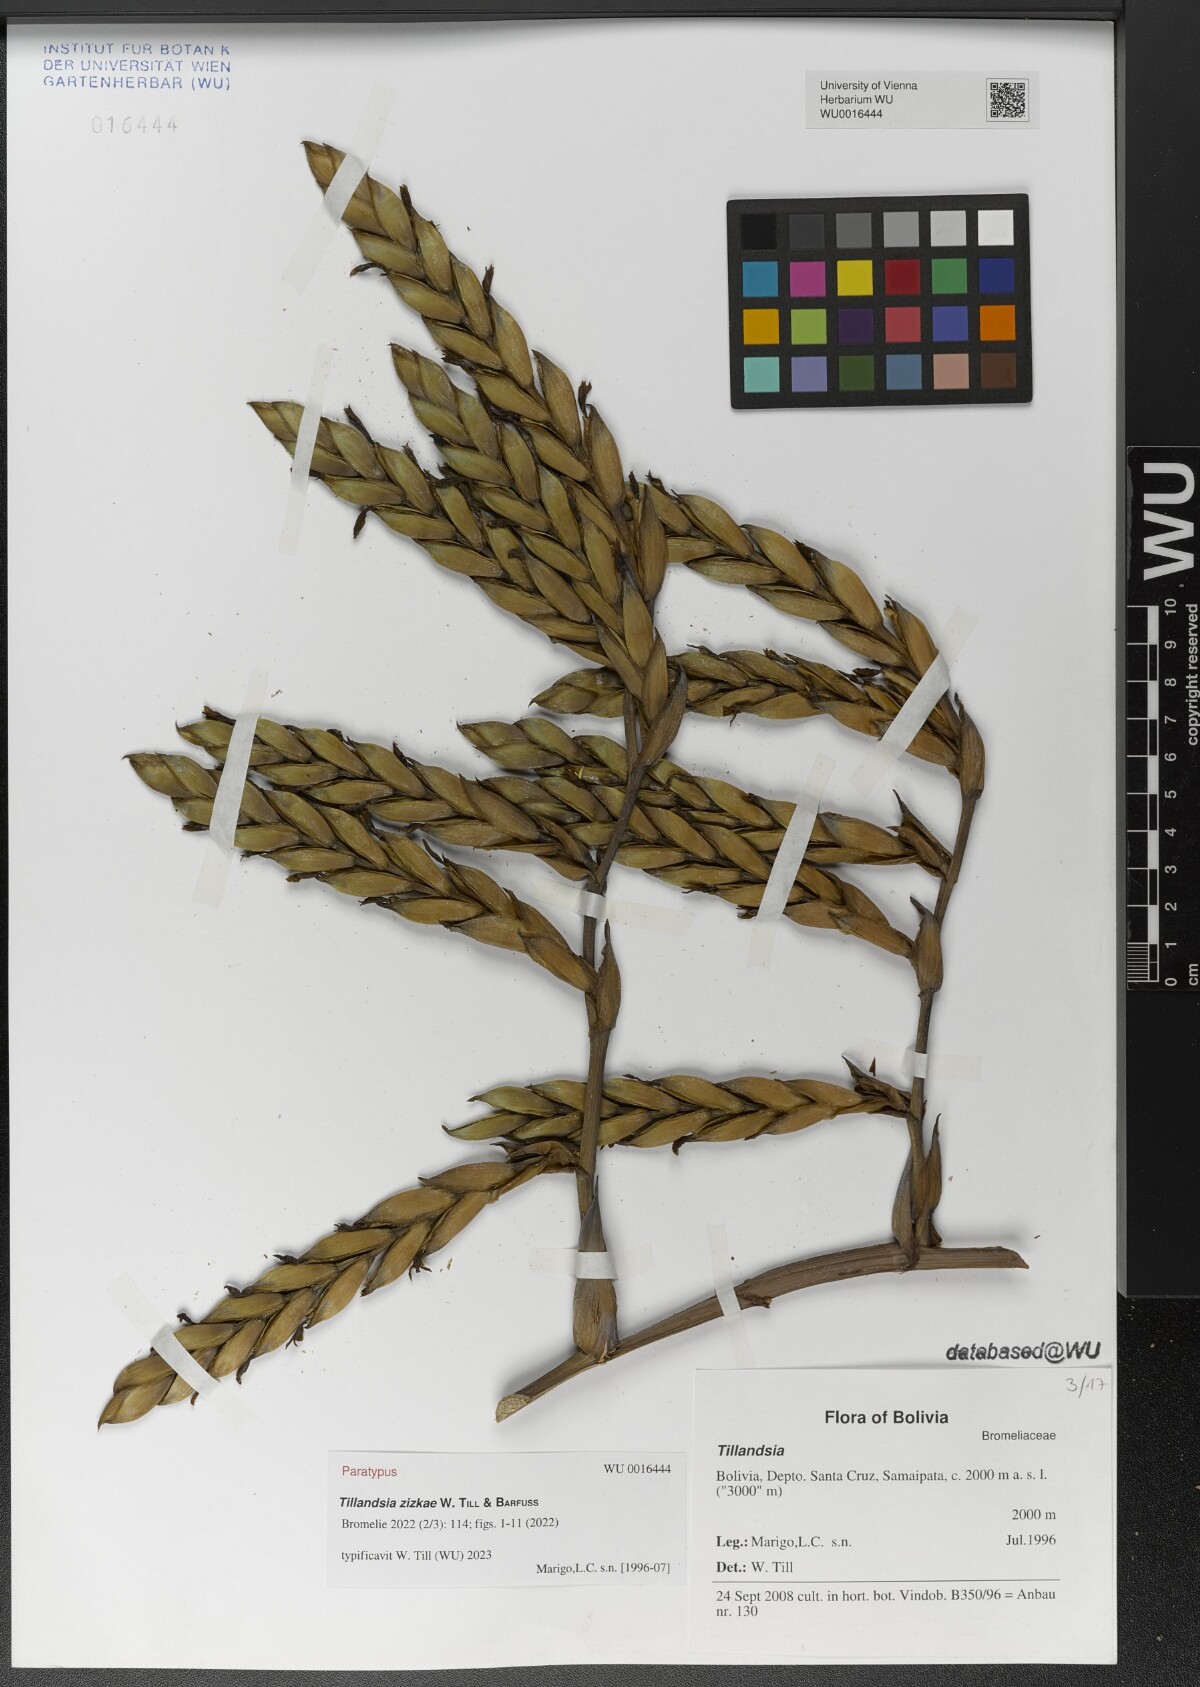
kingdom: Plantae
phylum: Tracheophyta
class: Liliopsida
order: Poales
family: Bromeliaceae
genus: Tillandsia
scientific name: Tillandsia
